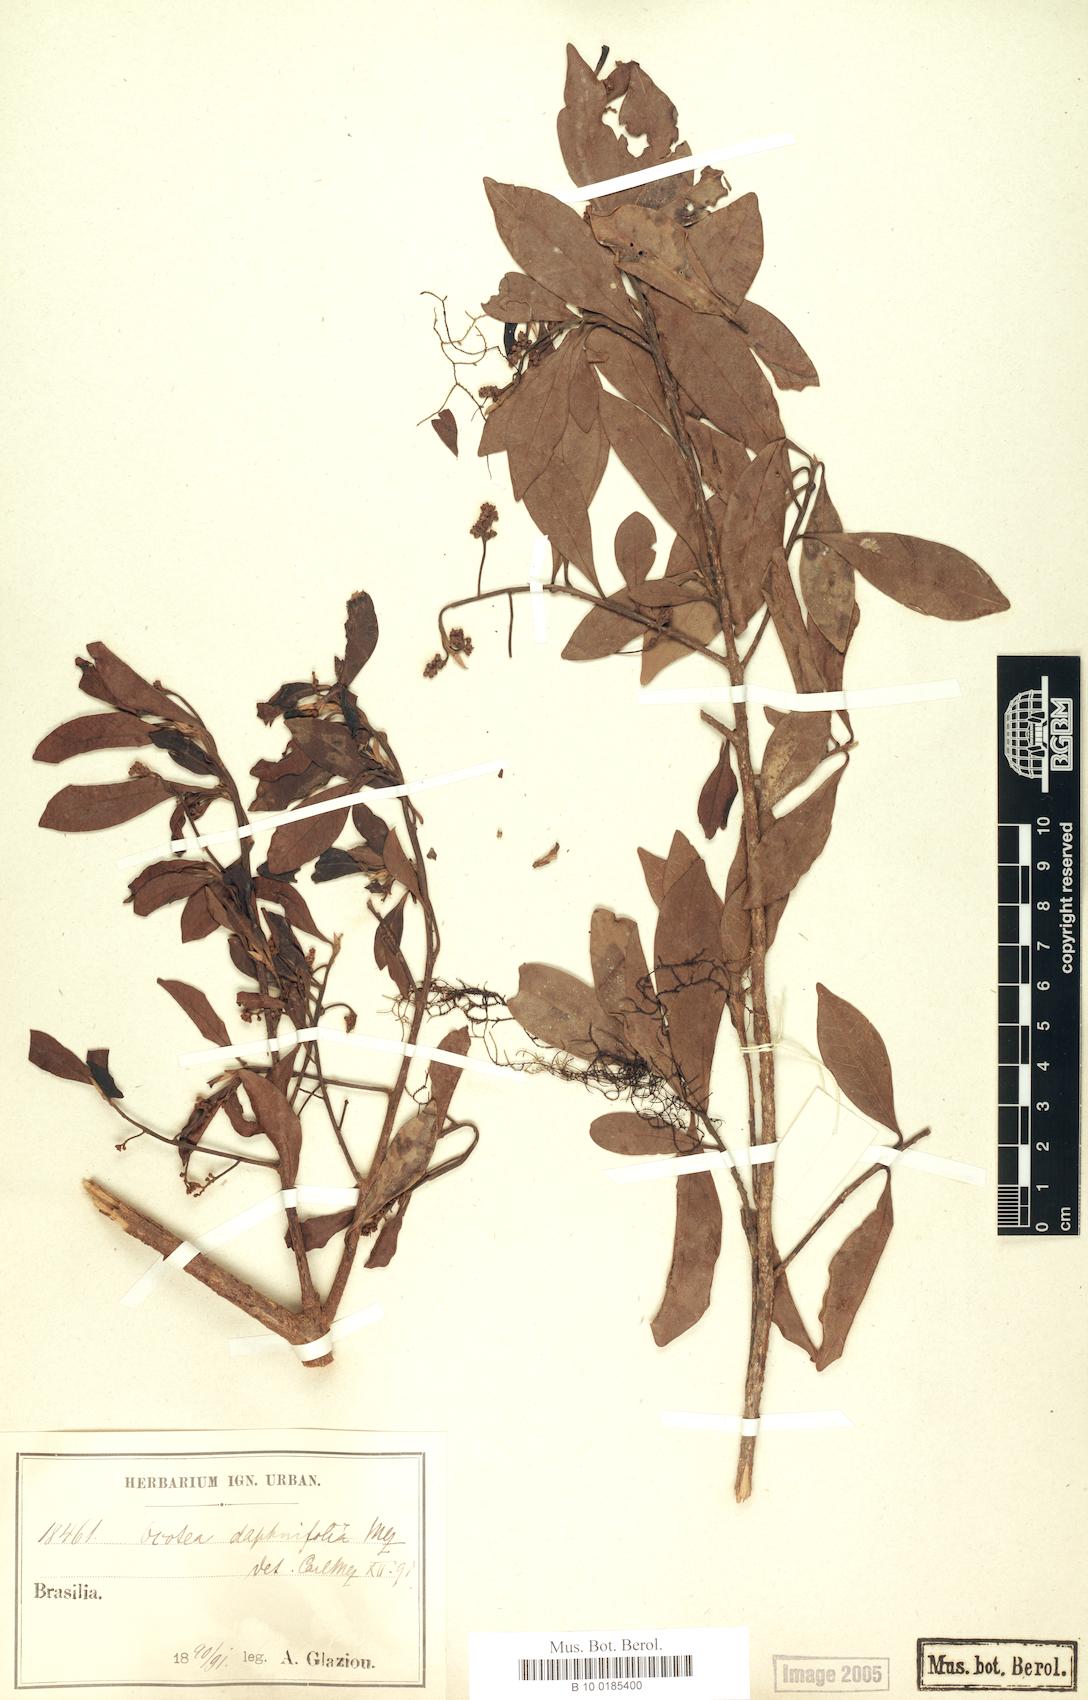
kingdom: Plantae
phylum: Tracheophyta
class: Magnoliopsida
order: Laurales
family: Lauraceae
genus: Ocotea
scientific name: Ocotea daphnifolia
